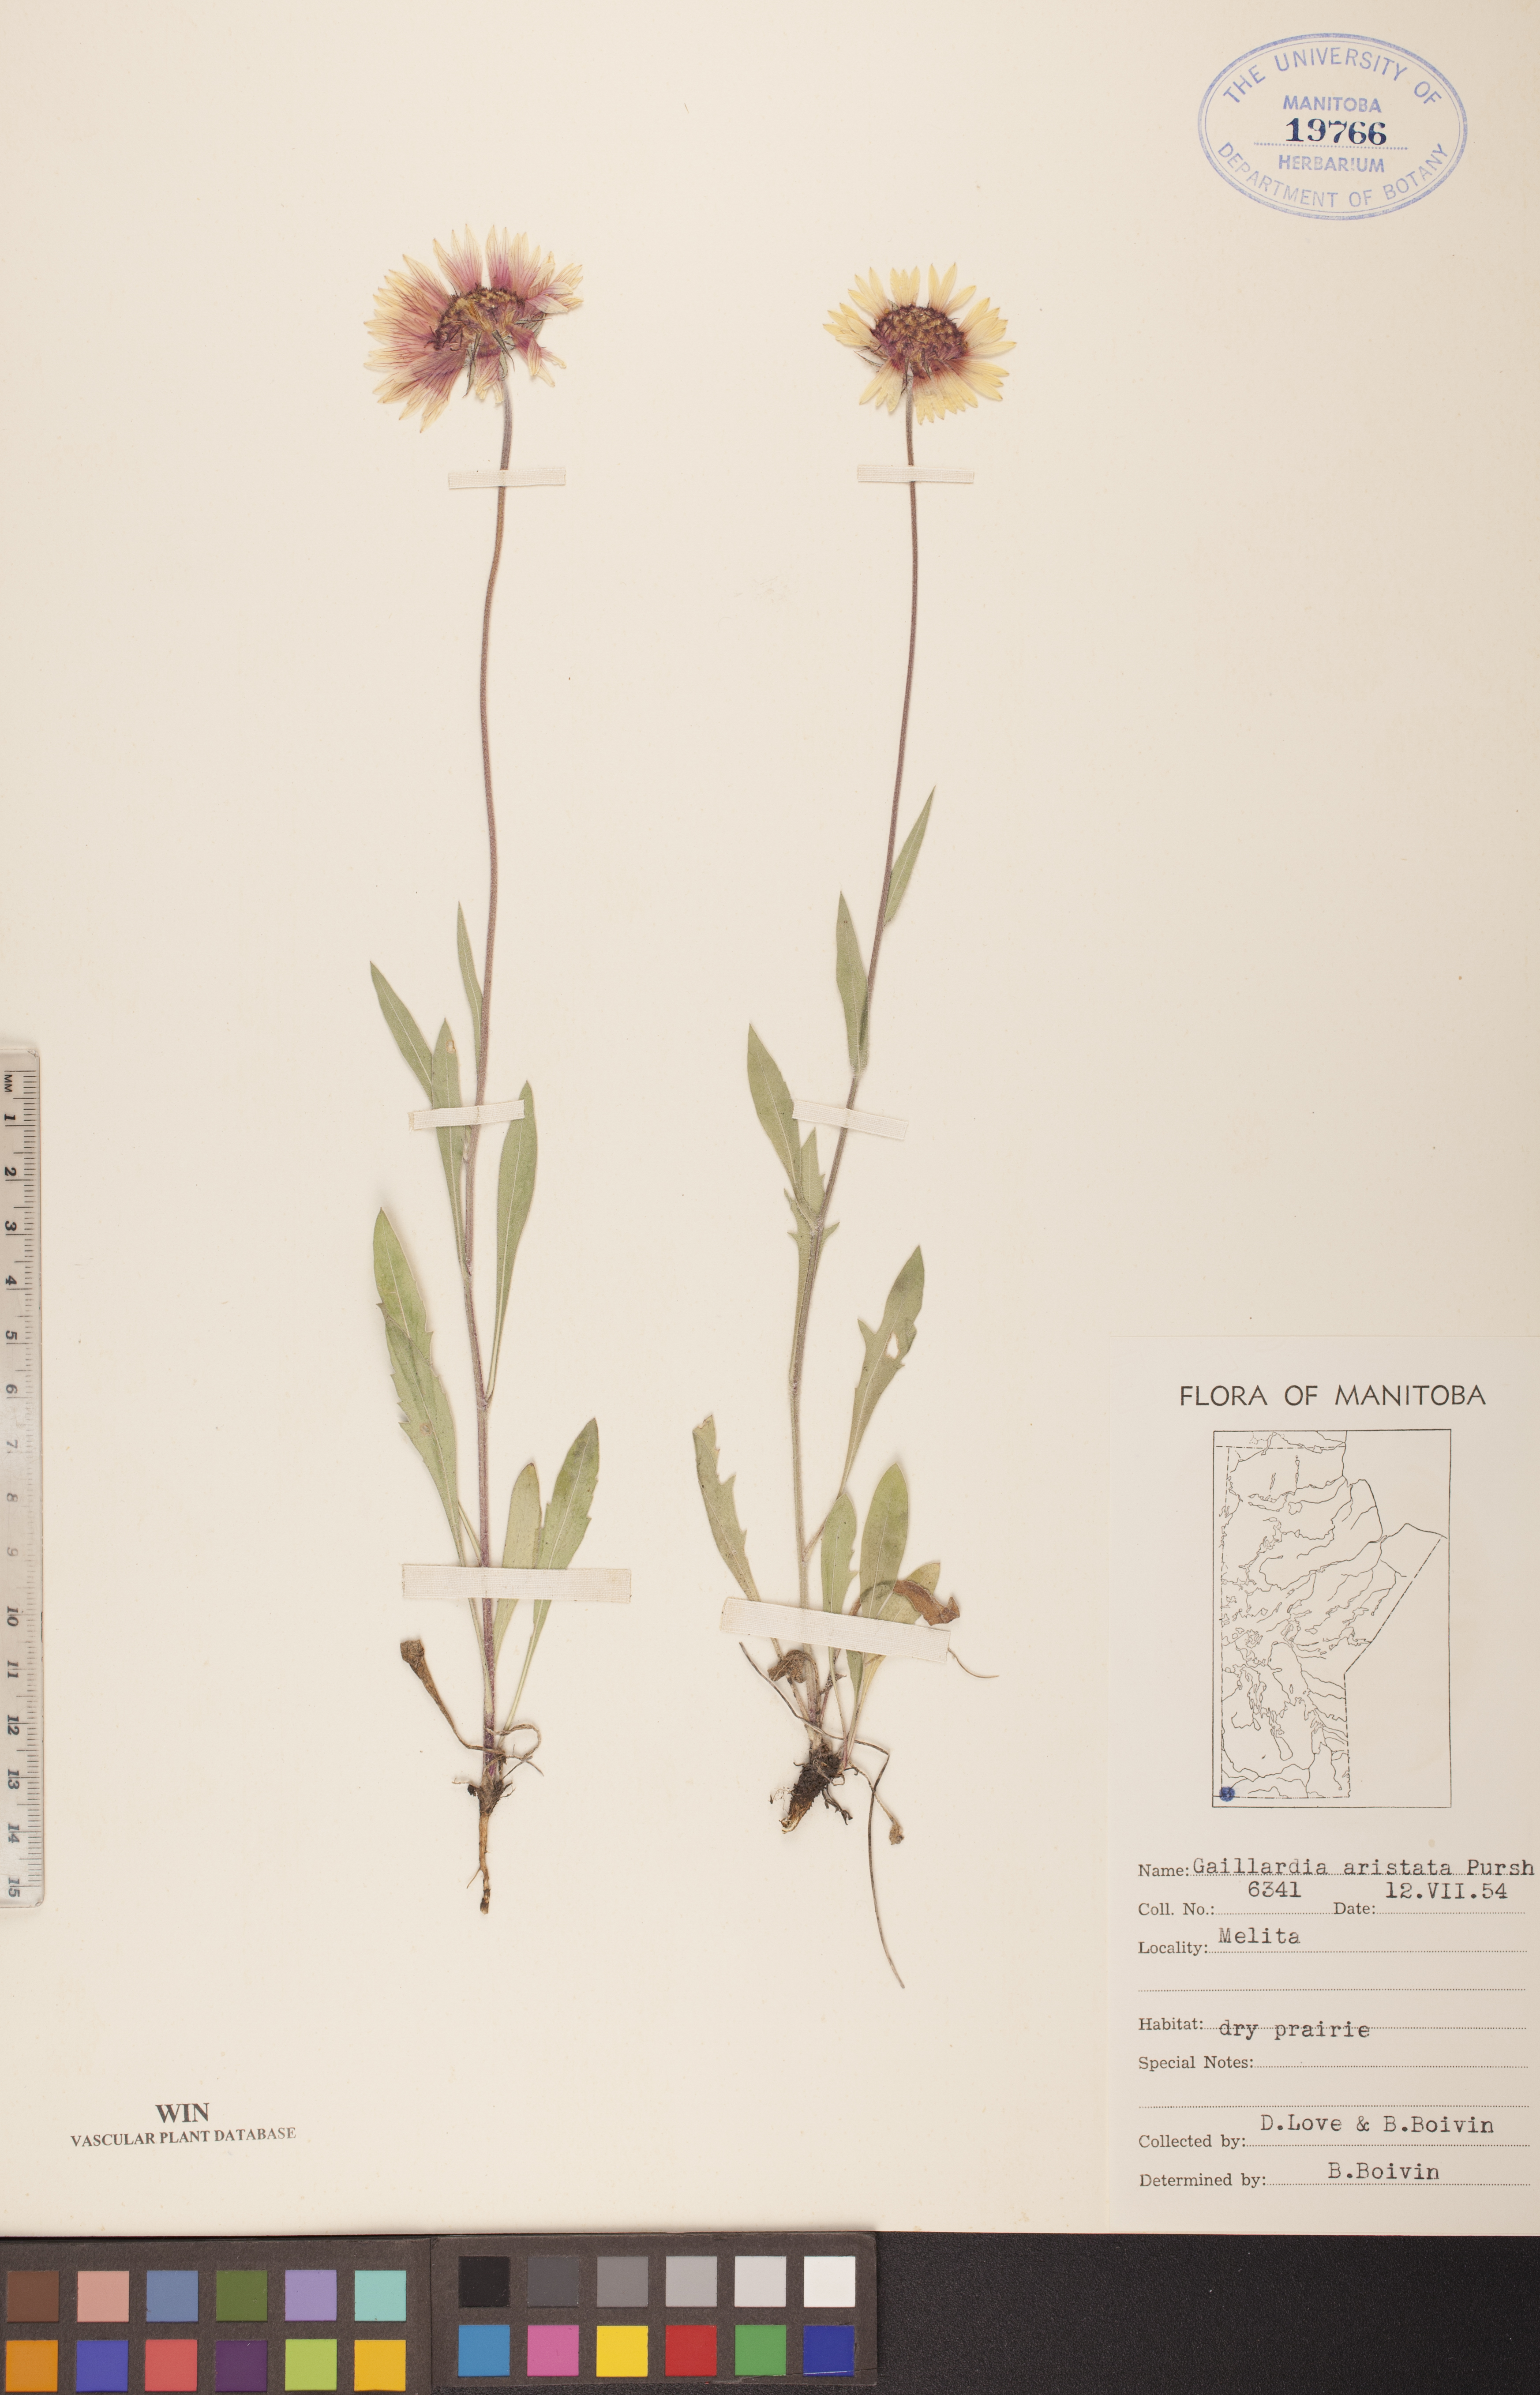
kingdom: Plantae
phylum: Tracheophyta
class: Magnoliopsida
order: Asterales
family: Asteraceae
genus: Gaillardia
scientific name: Gaillardia aristata
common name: Blanket-flower
